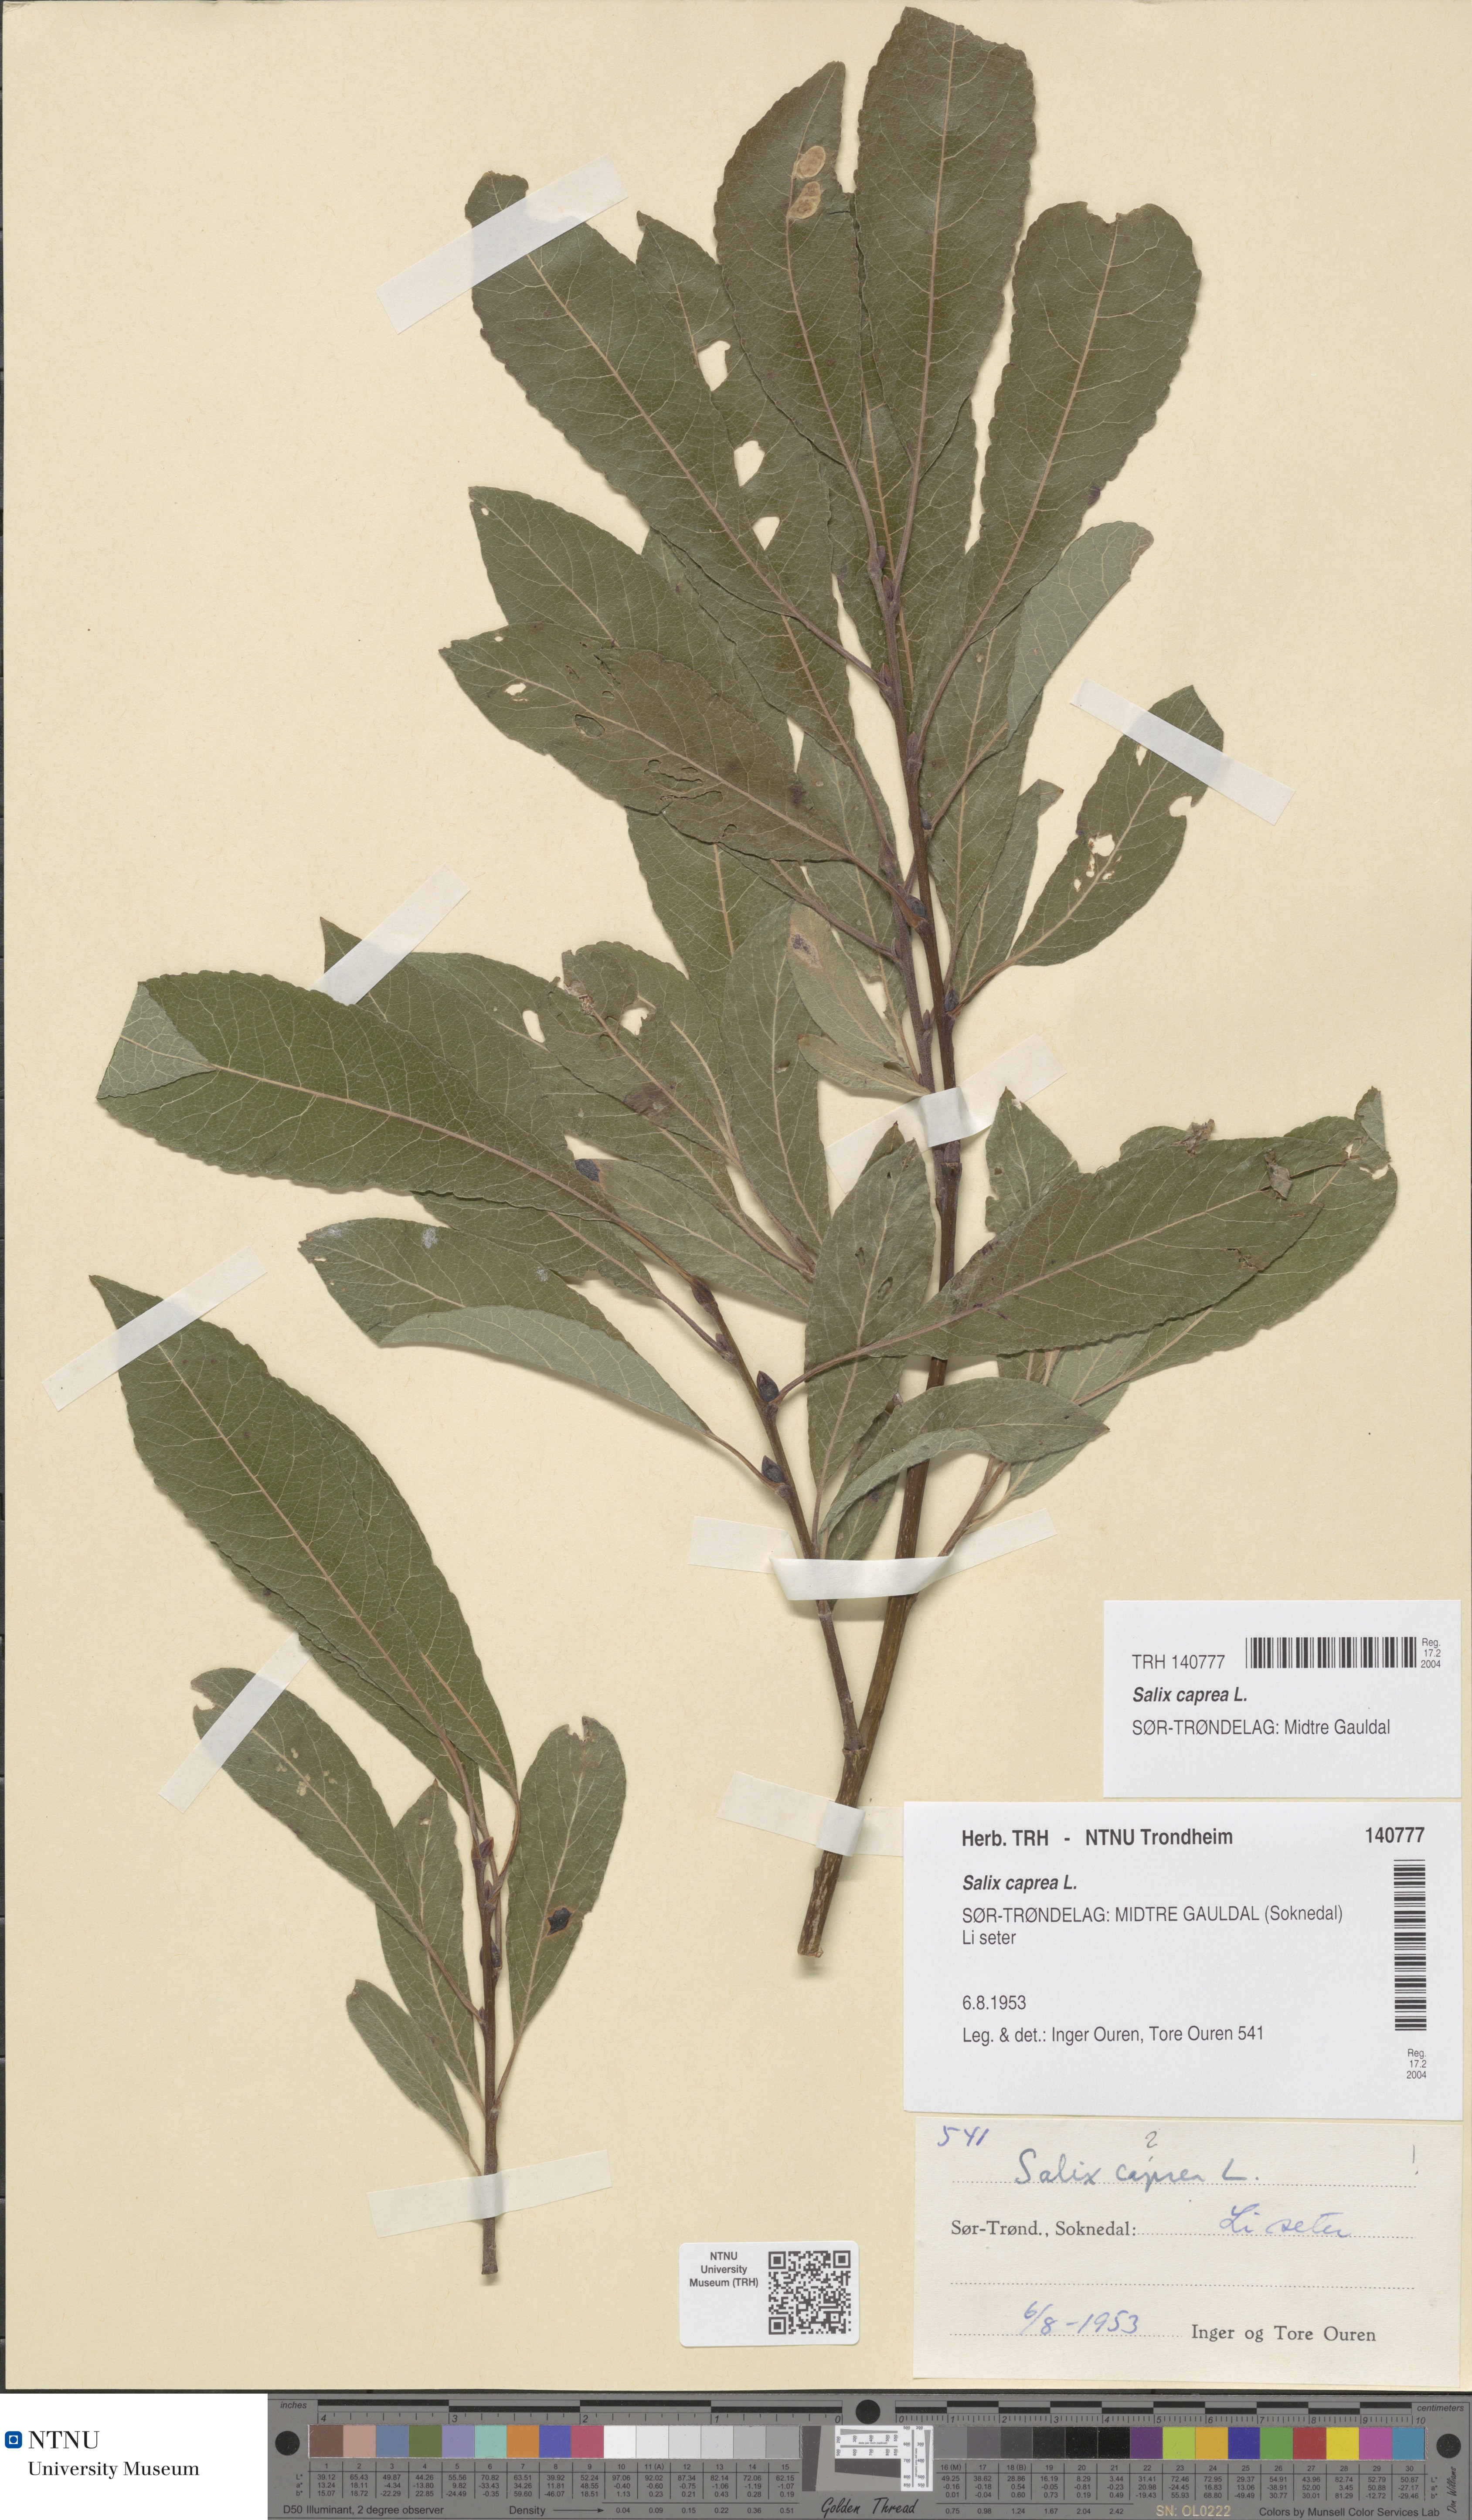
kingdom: Plantae
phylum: Tracheophyta
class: Magnoliopsida
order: Malpighiales
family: Salicaceae
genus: Salix
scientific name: Salix caprea
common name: Goat willow
